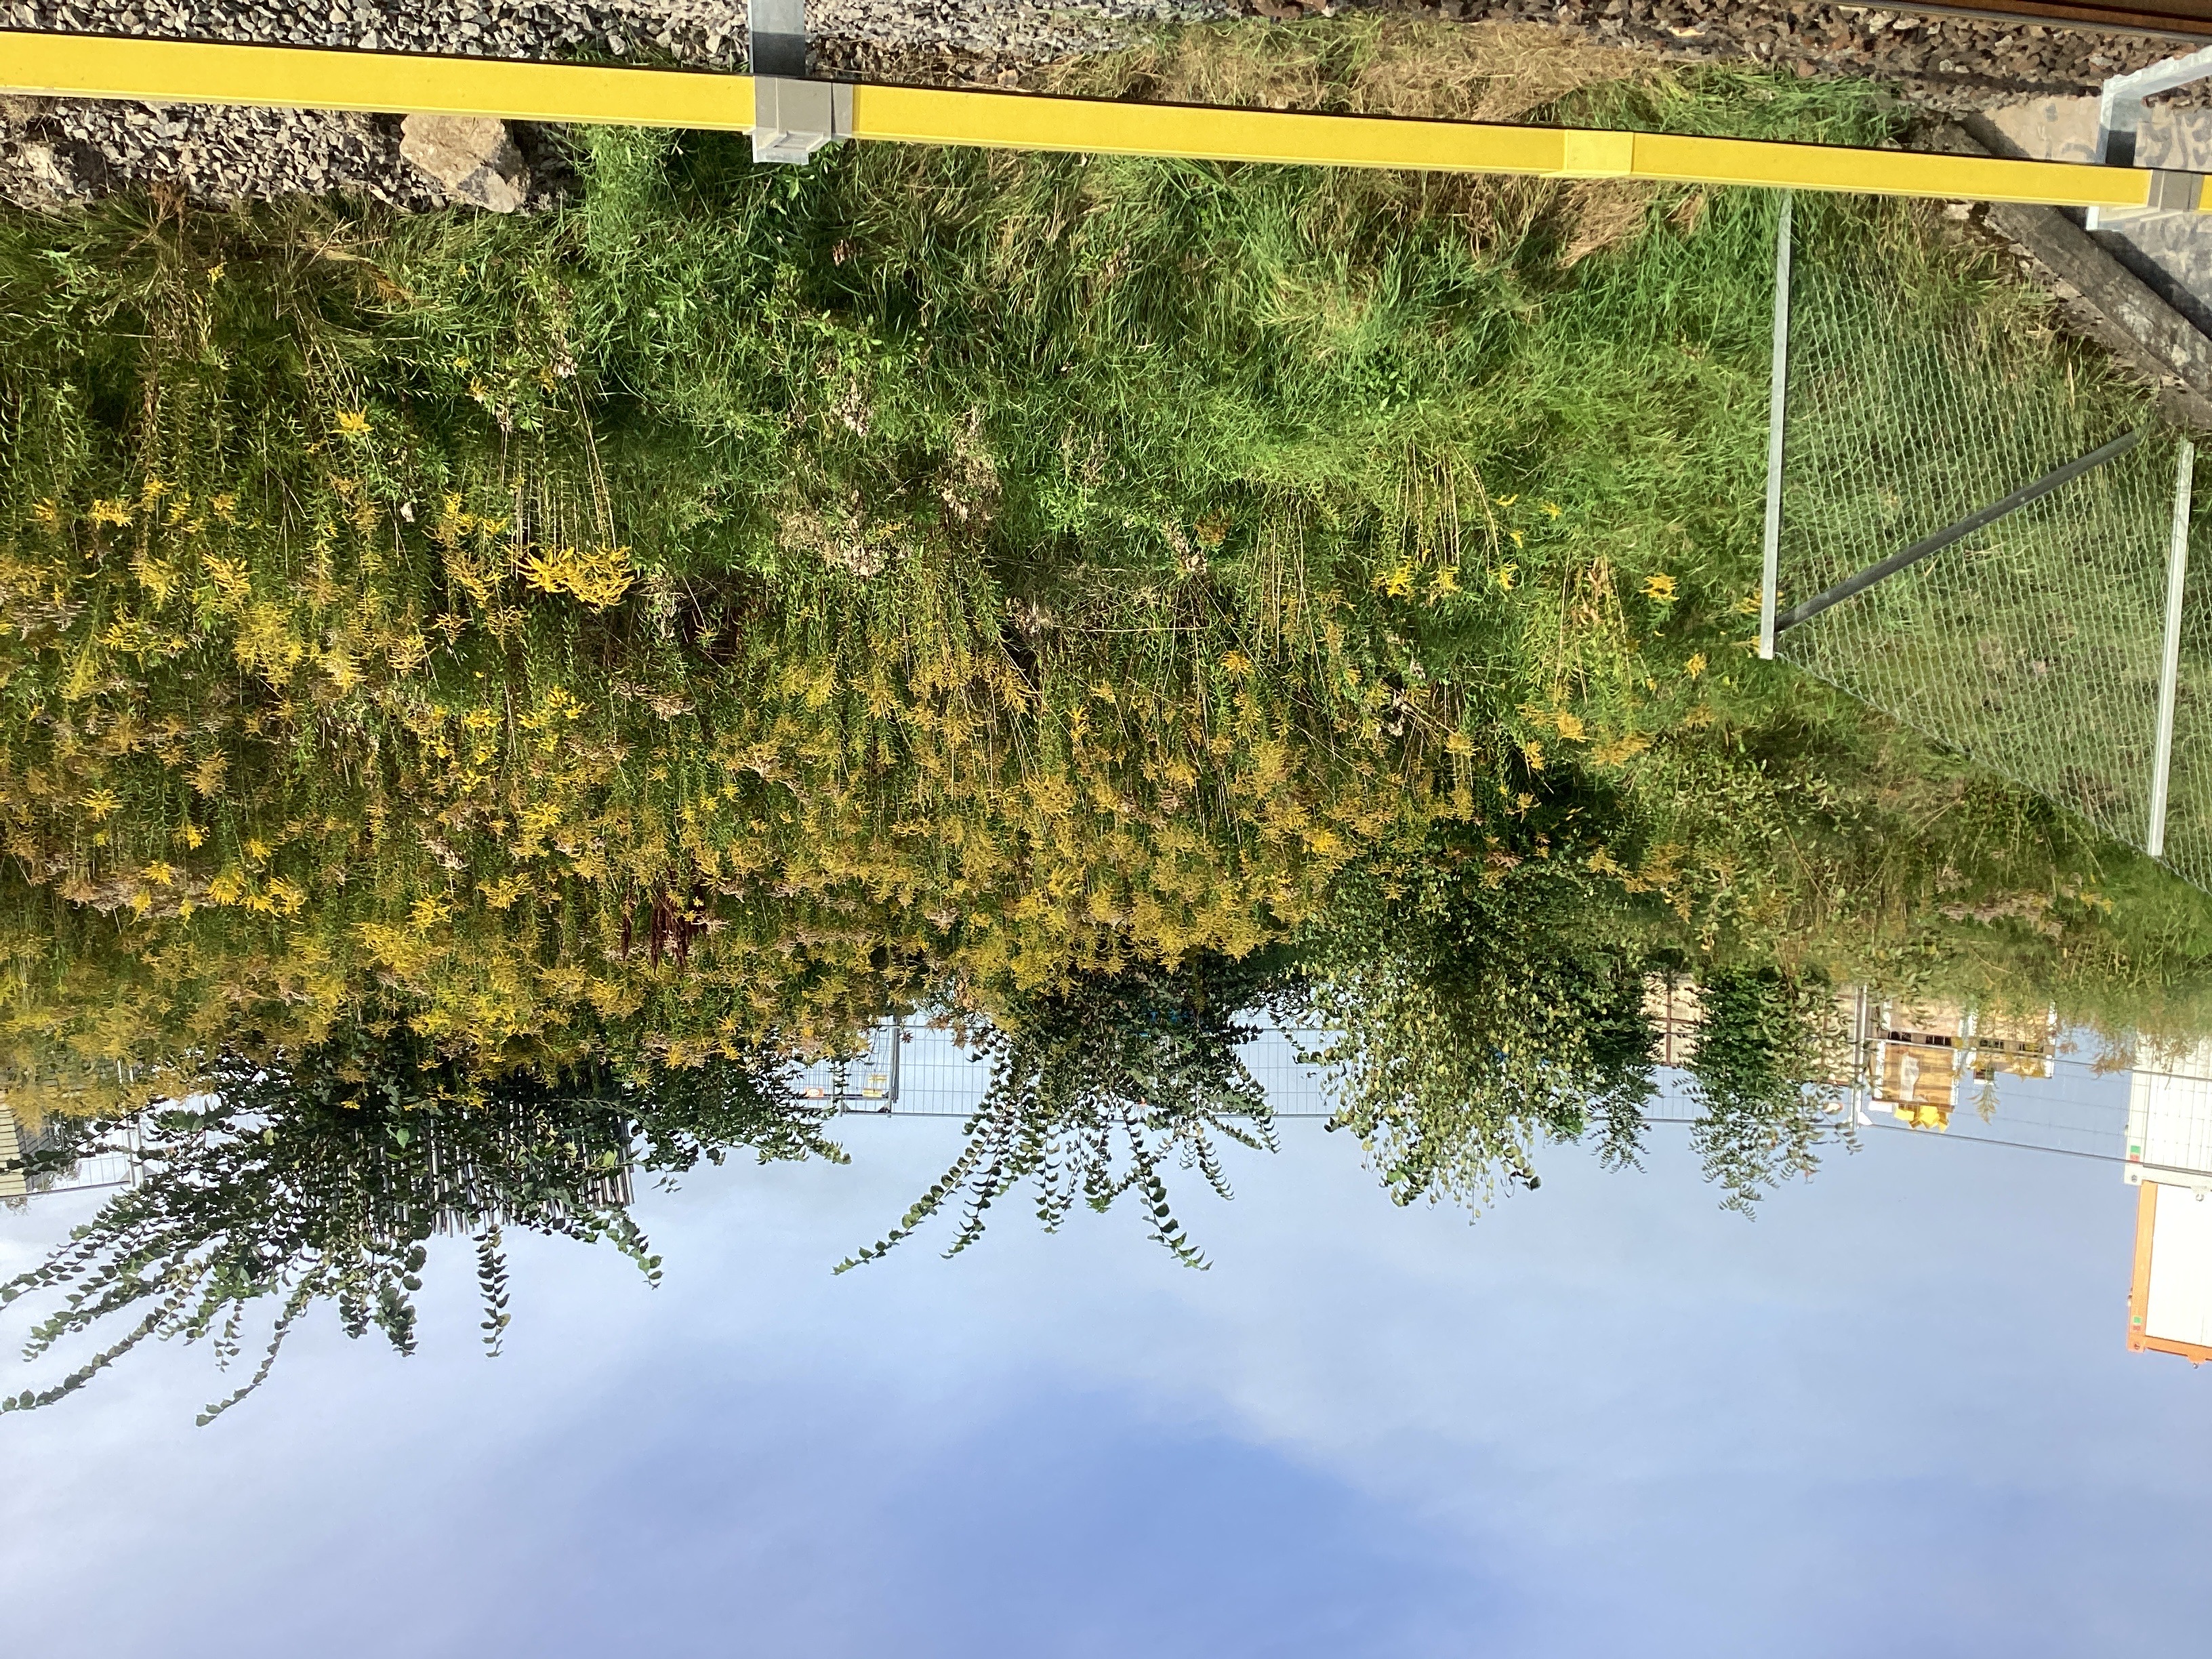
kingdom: Plantae
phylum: Tracheophyta
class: Magnoliopsida
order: Asterales
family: Asteraceae
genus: Solidago
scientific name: Solidago canadensis
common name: kanadagullris
